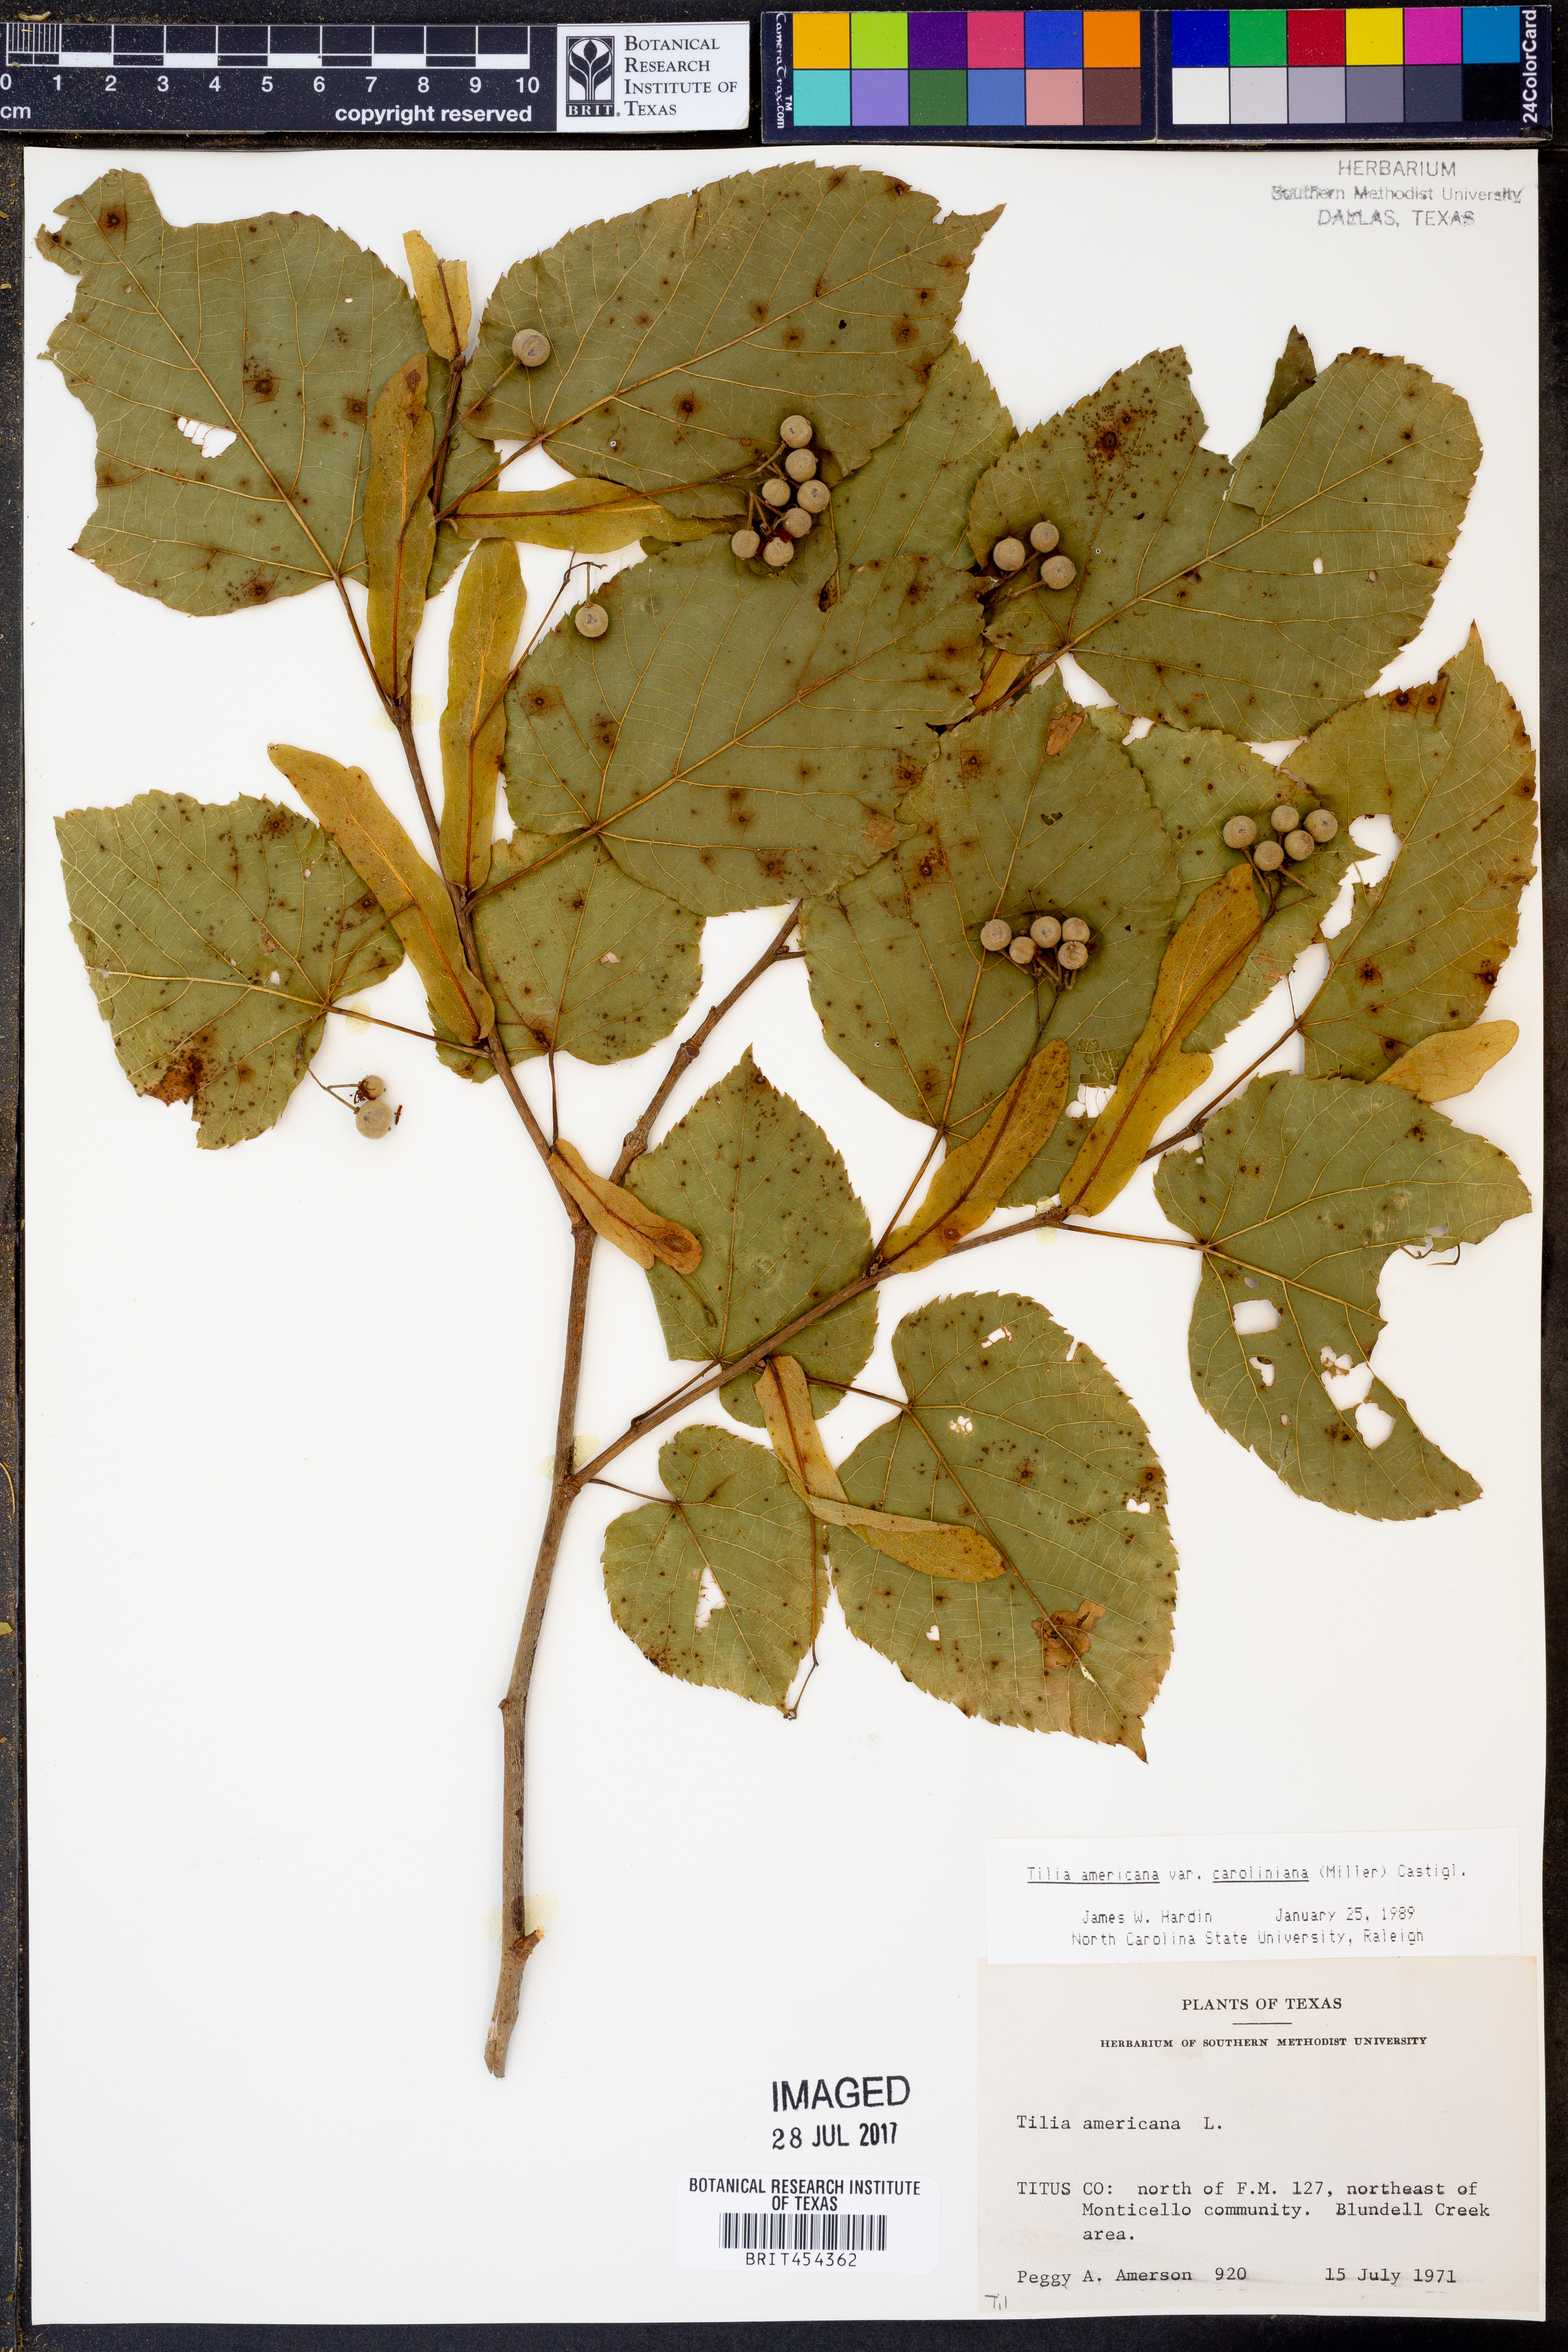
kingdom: Plantae
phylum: Tracheophyta
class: Magnoliopsida
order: Malvales
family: Malvaceae
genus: Tilia
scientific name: Tilia americana
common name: Basswood
